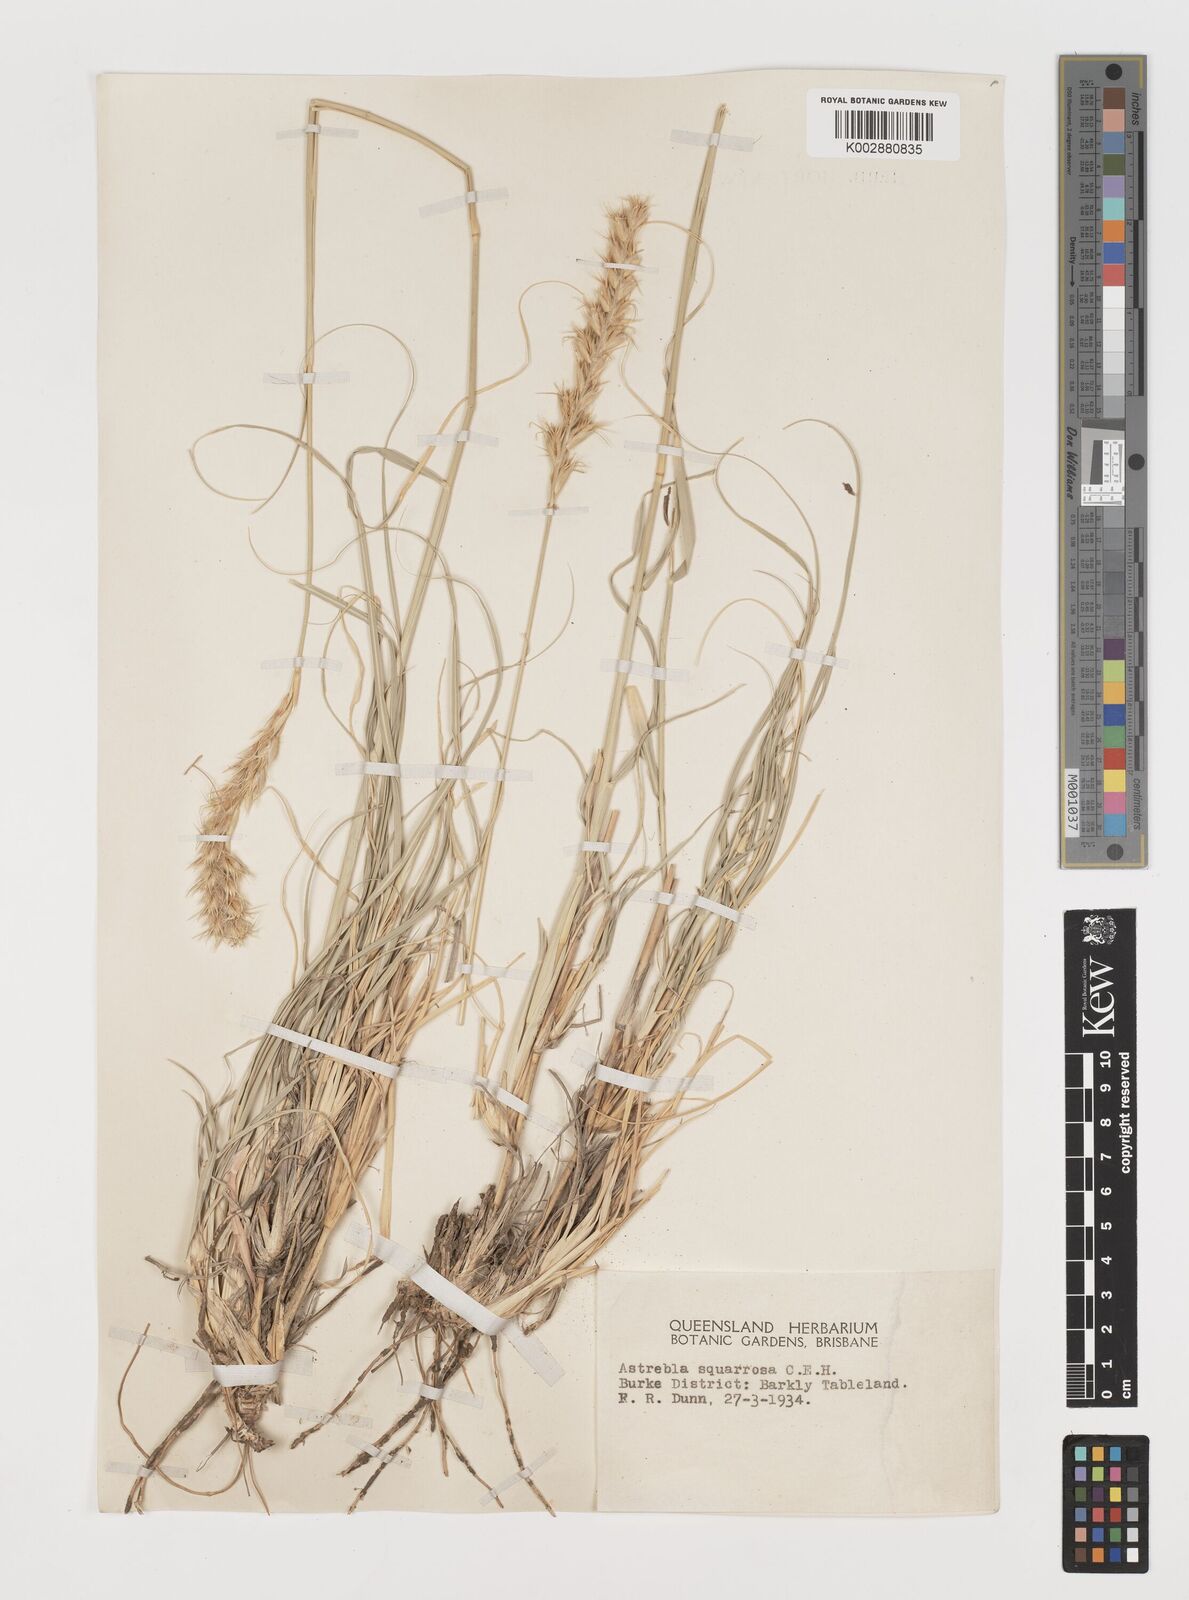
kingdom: Plantae
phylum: Tracheophyta
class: Liliopsida
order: Poales
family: Poaceae
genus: Astrebla
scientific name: Astrebla squarrosa
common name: Wheat-ear mitchell grass
